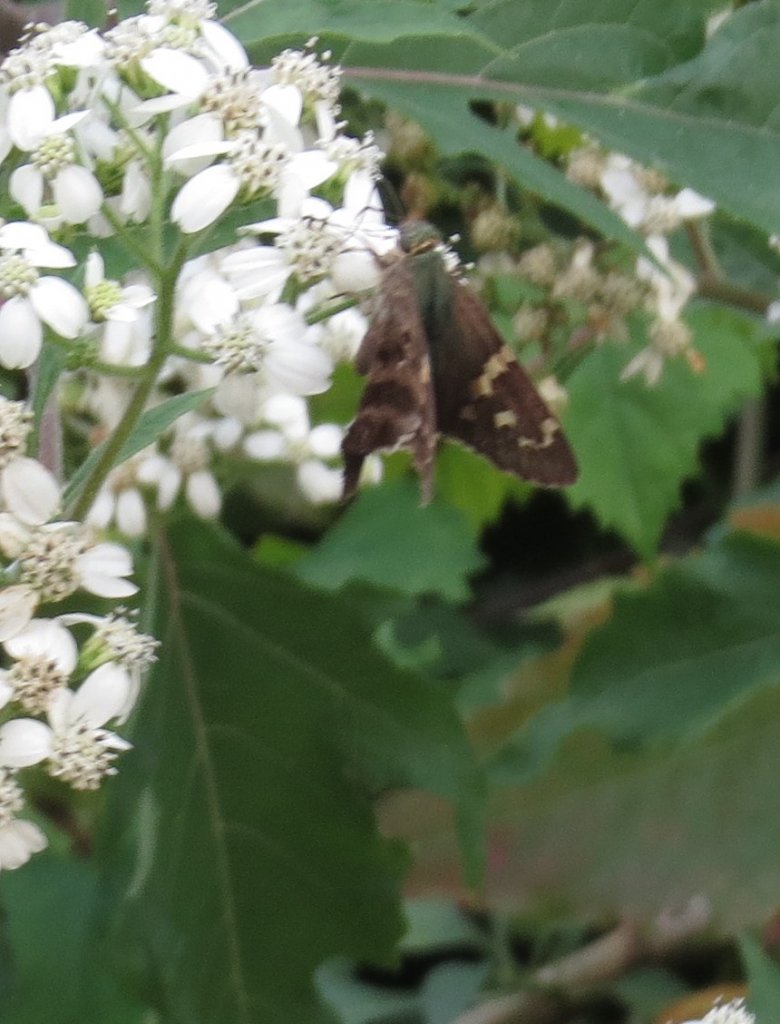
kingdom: Animalia
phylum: Arthropoda
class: Insecta
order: Lepidoptera
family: Hesperiidae
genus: Urbanus
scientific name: Urbanus proteus
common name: Long-tailed Skipper
